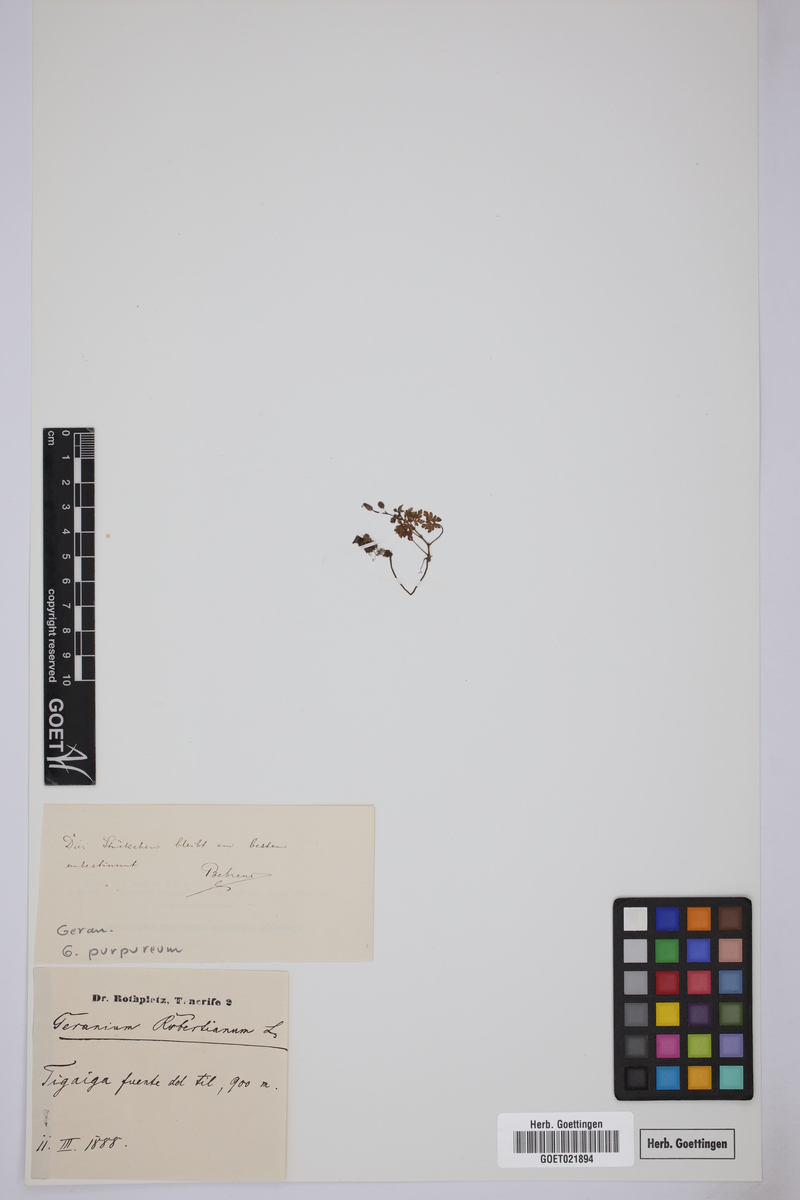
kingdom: Plantae
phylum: Tracheophyta
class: Magnoliopsida
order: Geraniales
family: Geraniaceae
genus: Geranium
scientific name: Geranium purpureum
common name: Little-robin
